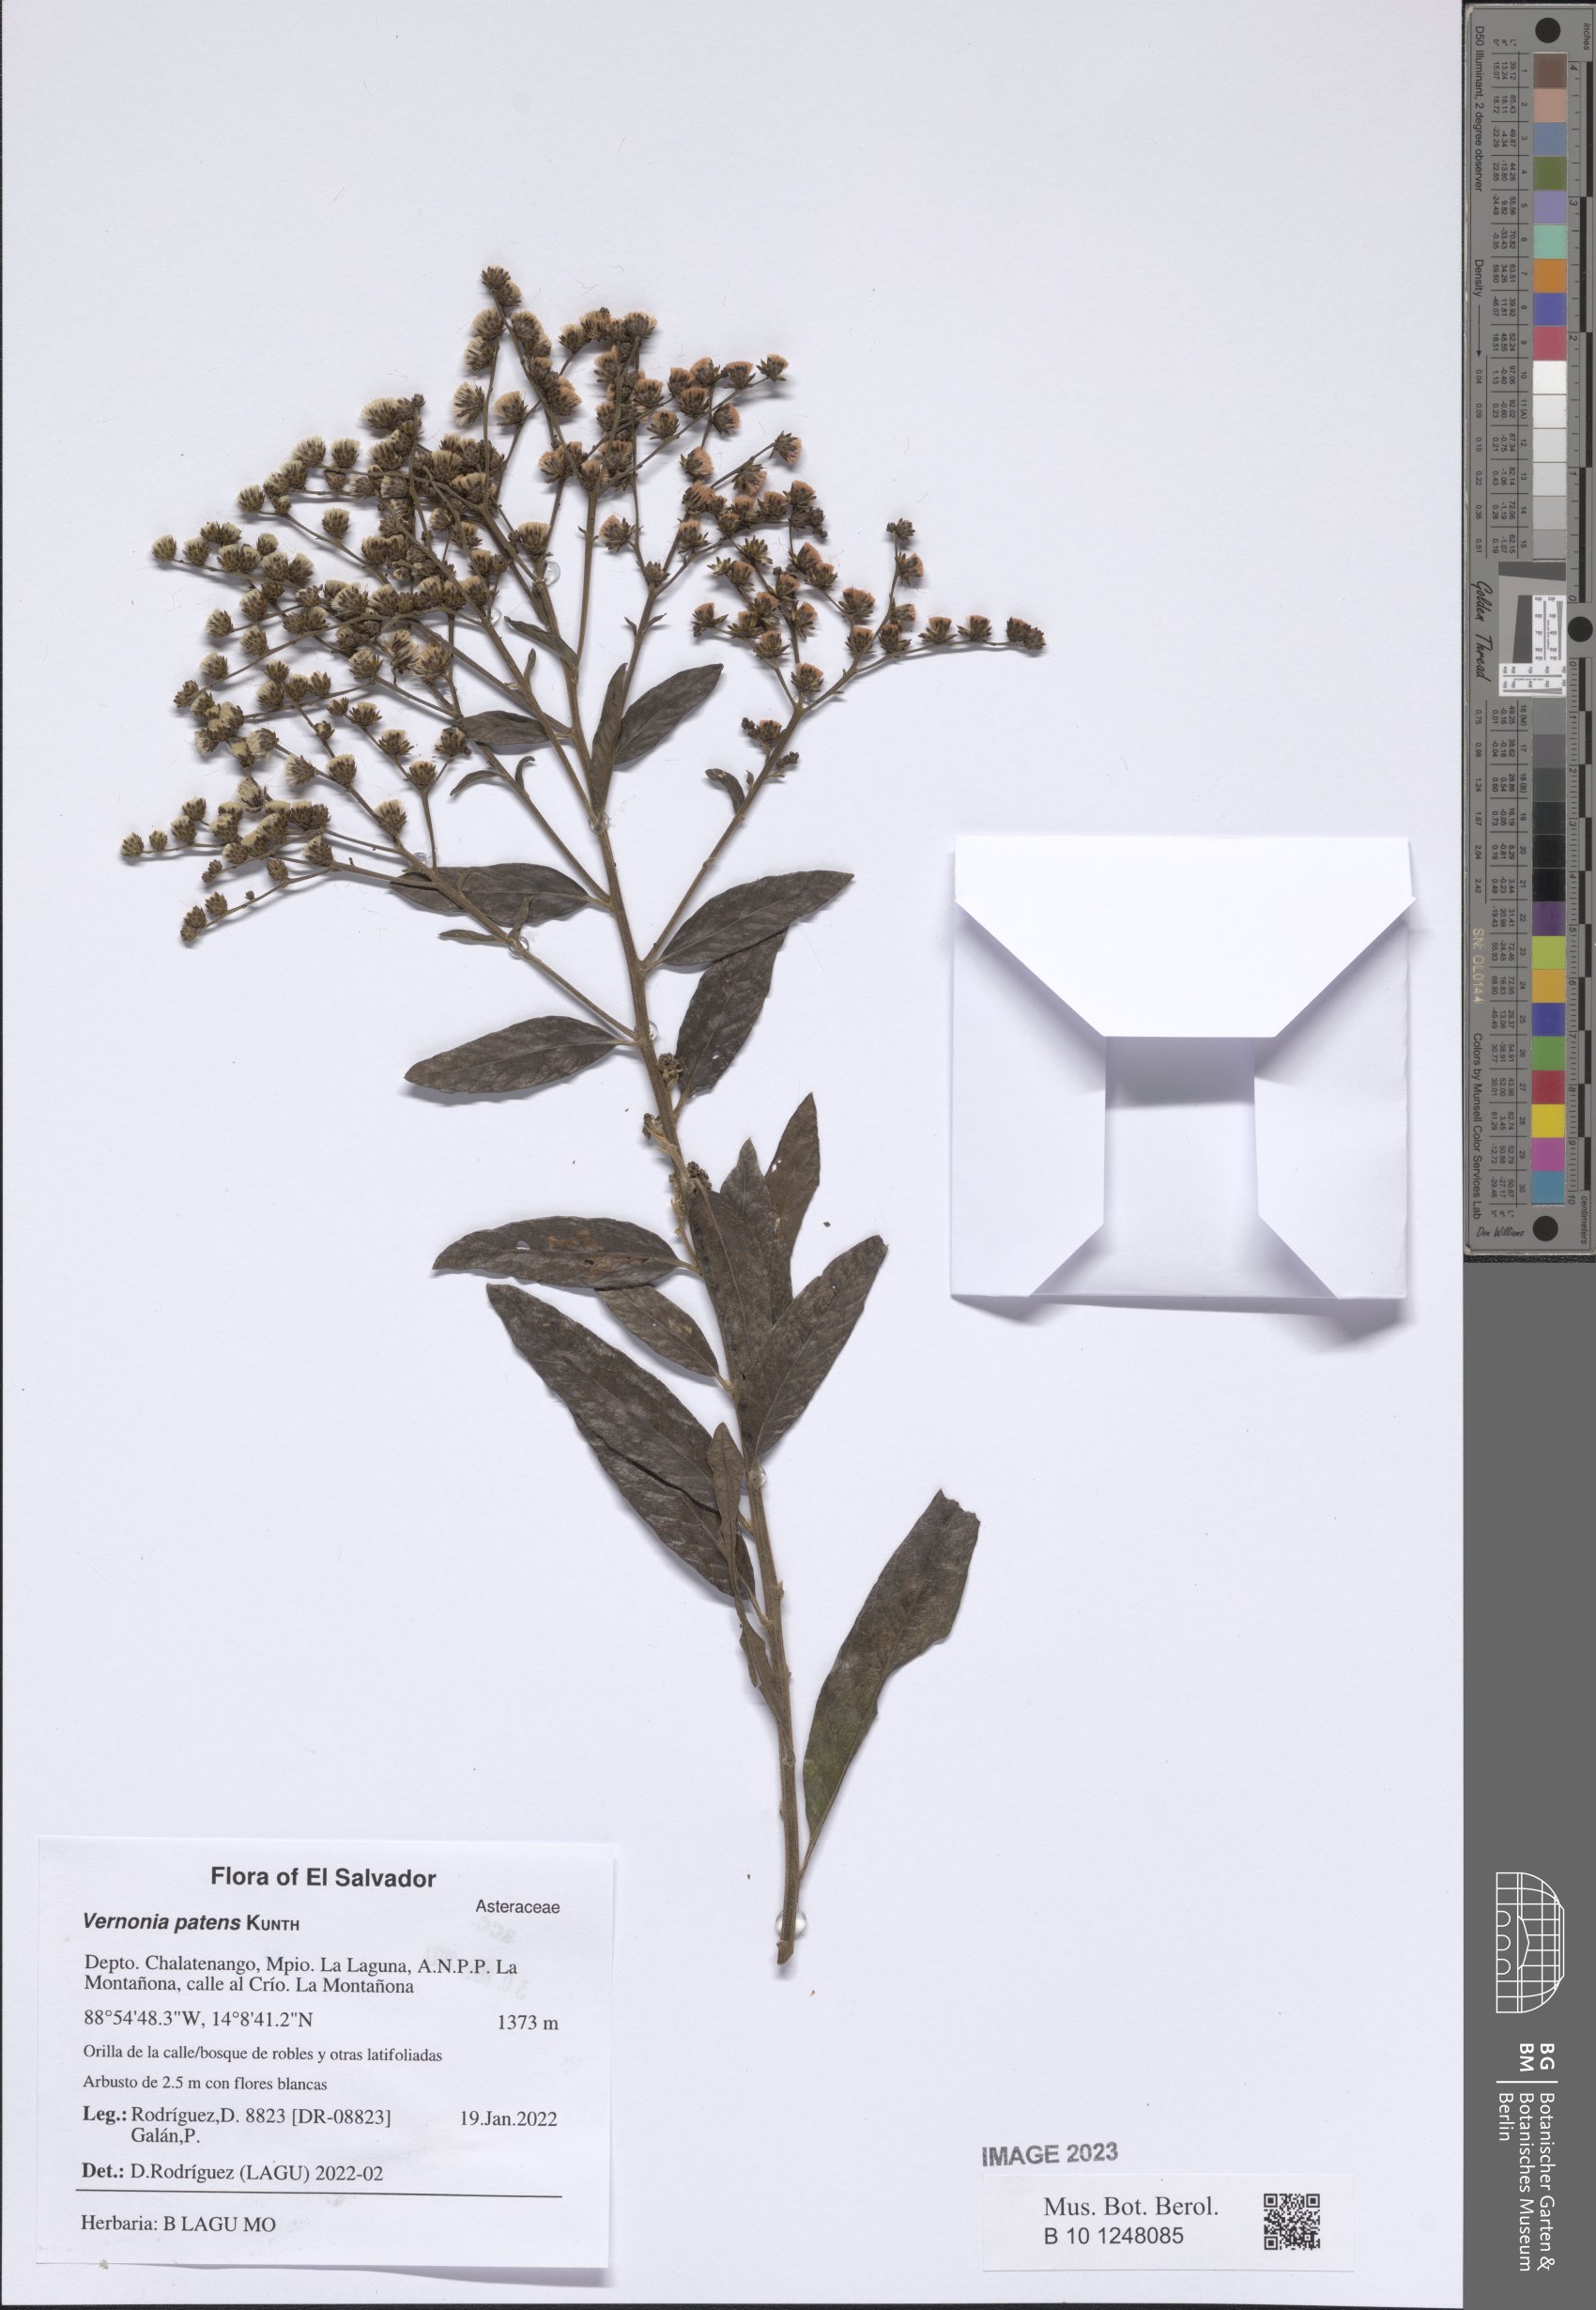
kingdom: Plantae
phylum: Tracheophyta
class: Magnoliopsida
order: Asterales
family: Asteraceae
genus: Vernonanthura
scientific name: Vernonanthura patens
